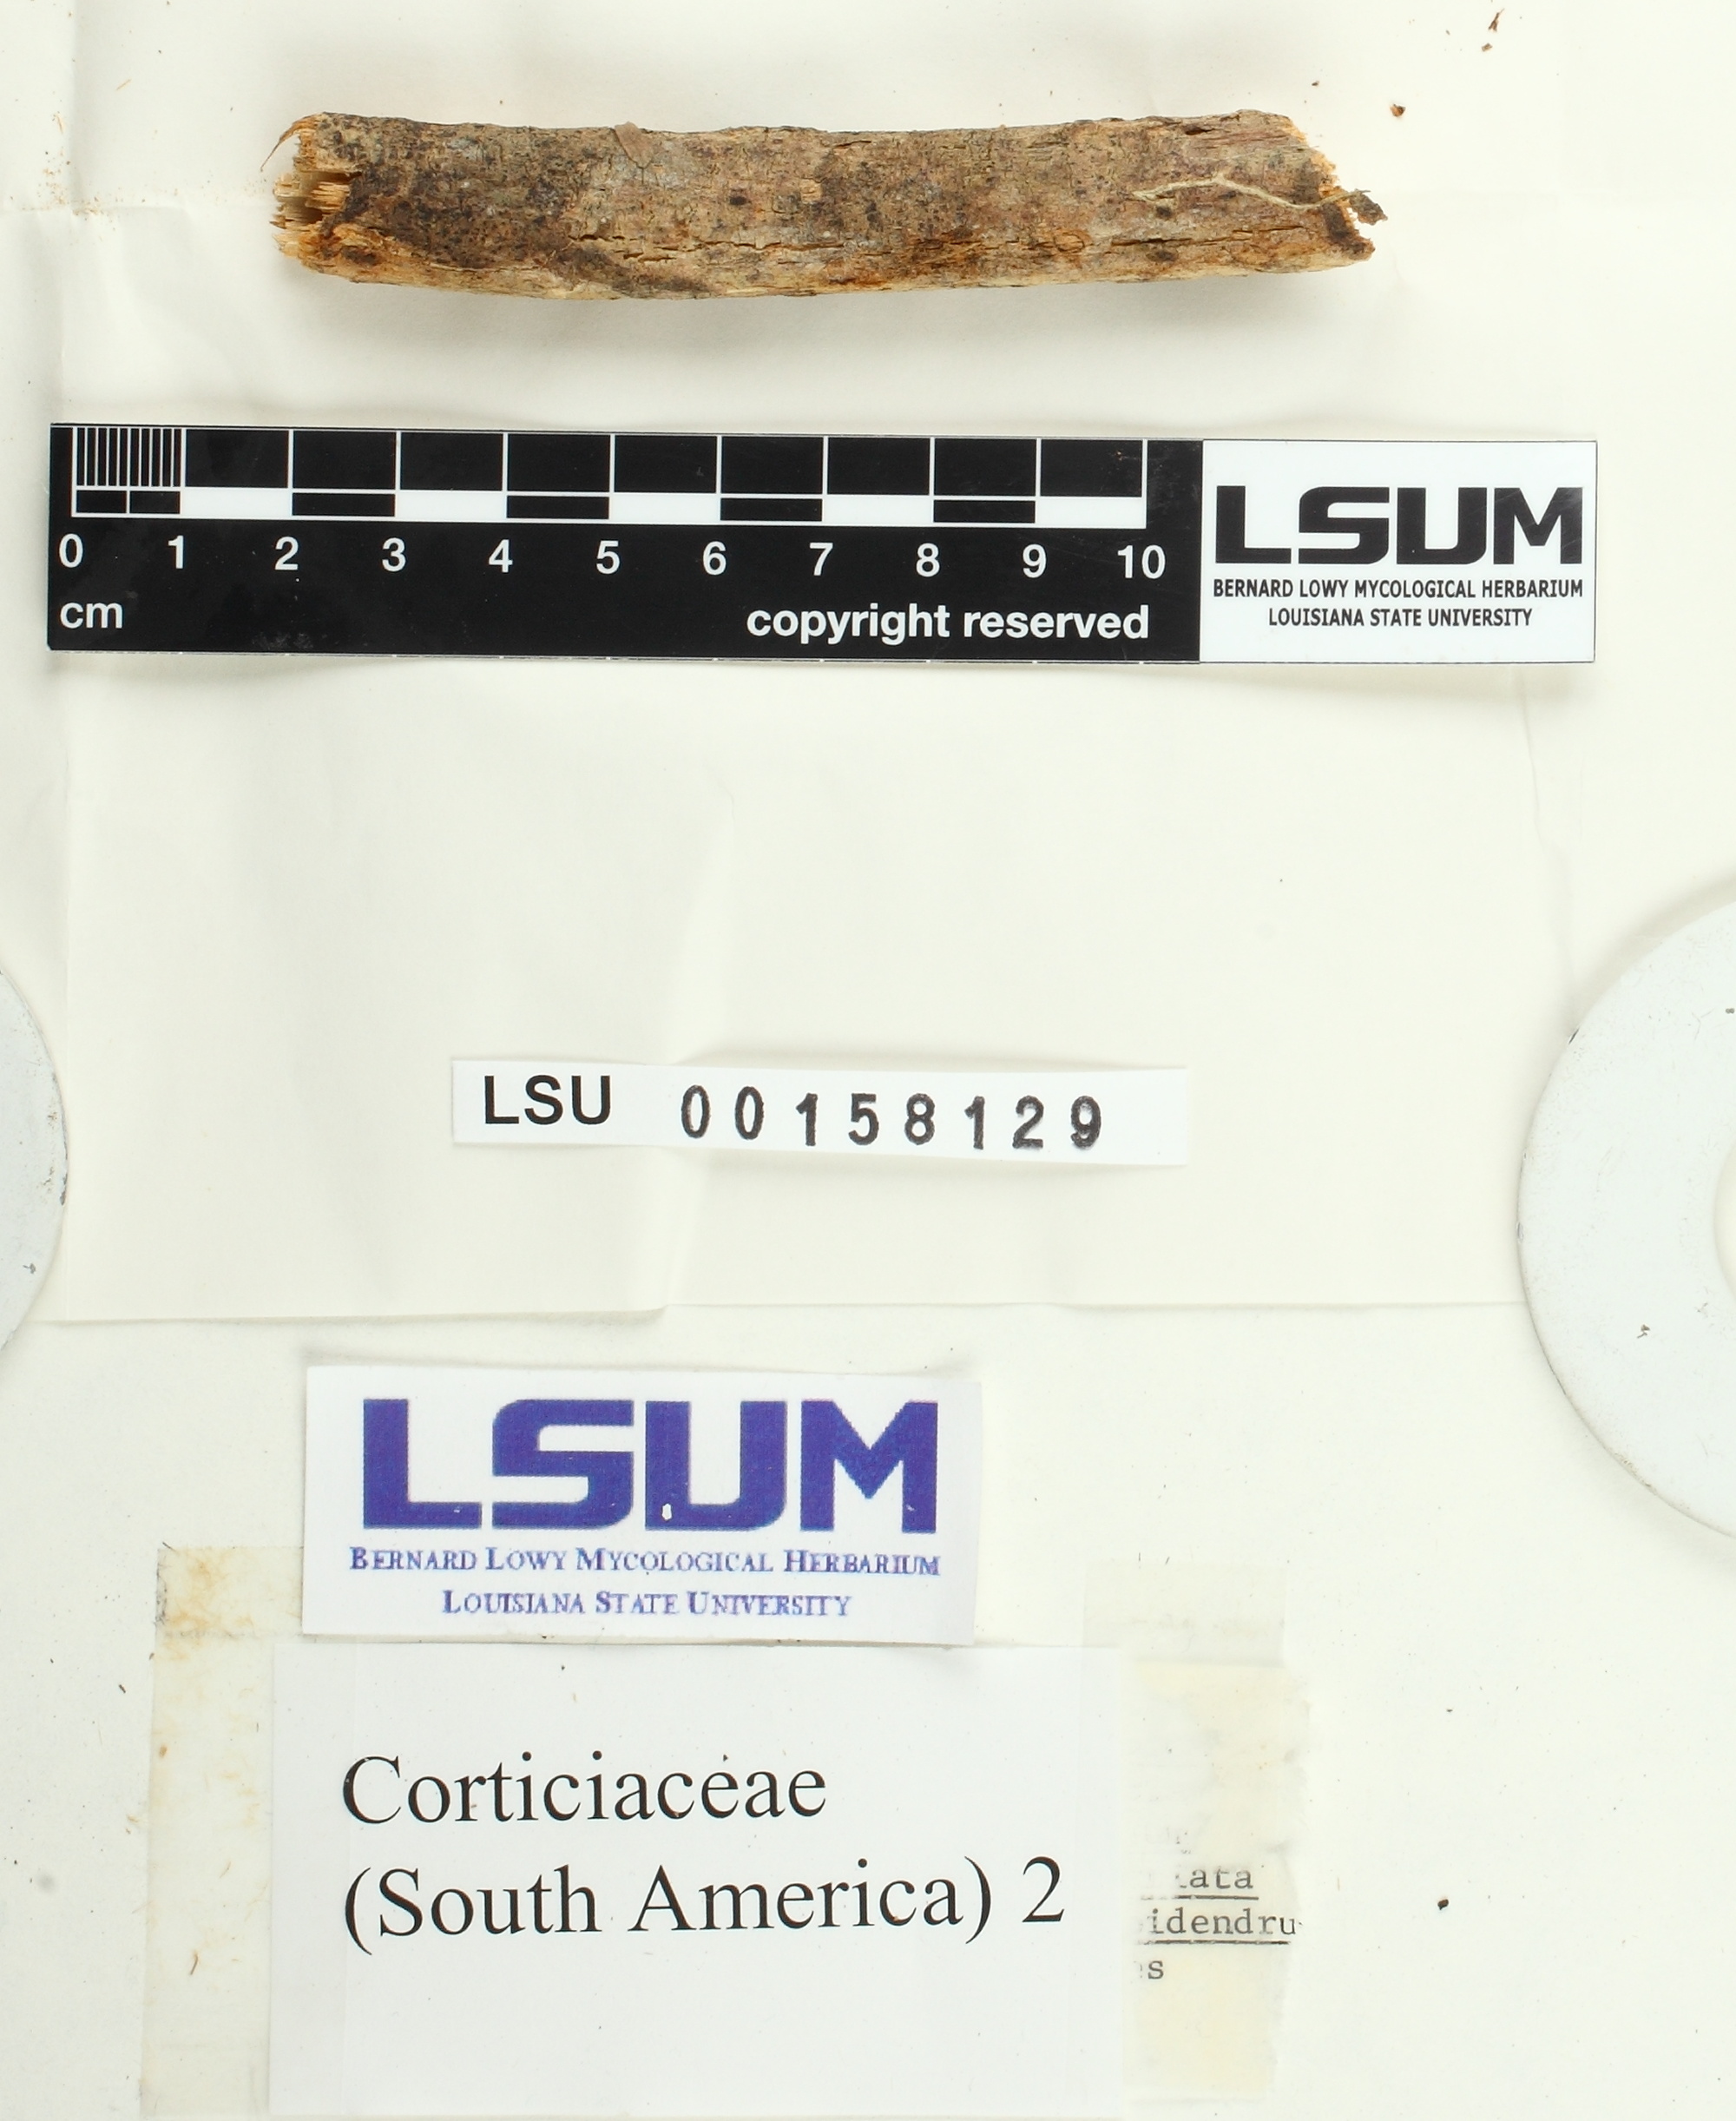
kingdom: Fungi
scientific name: Fungi
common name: Fungi
